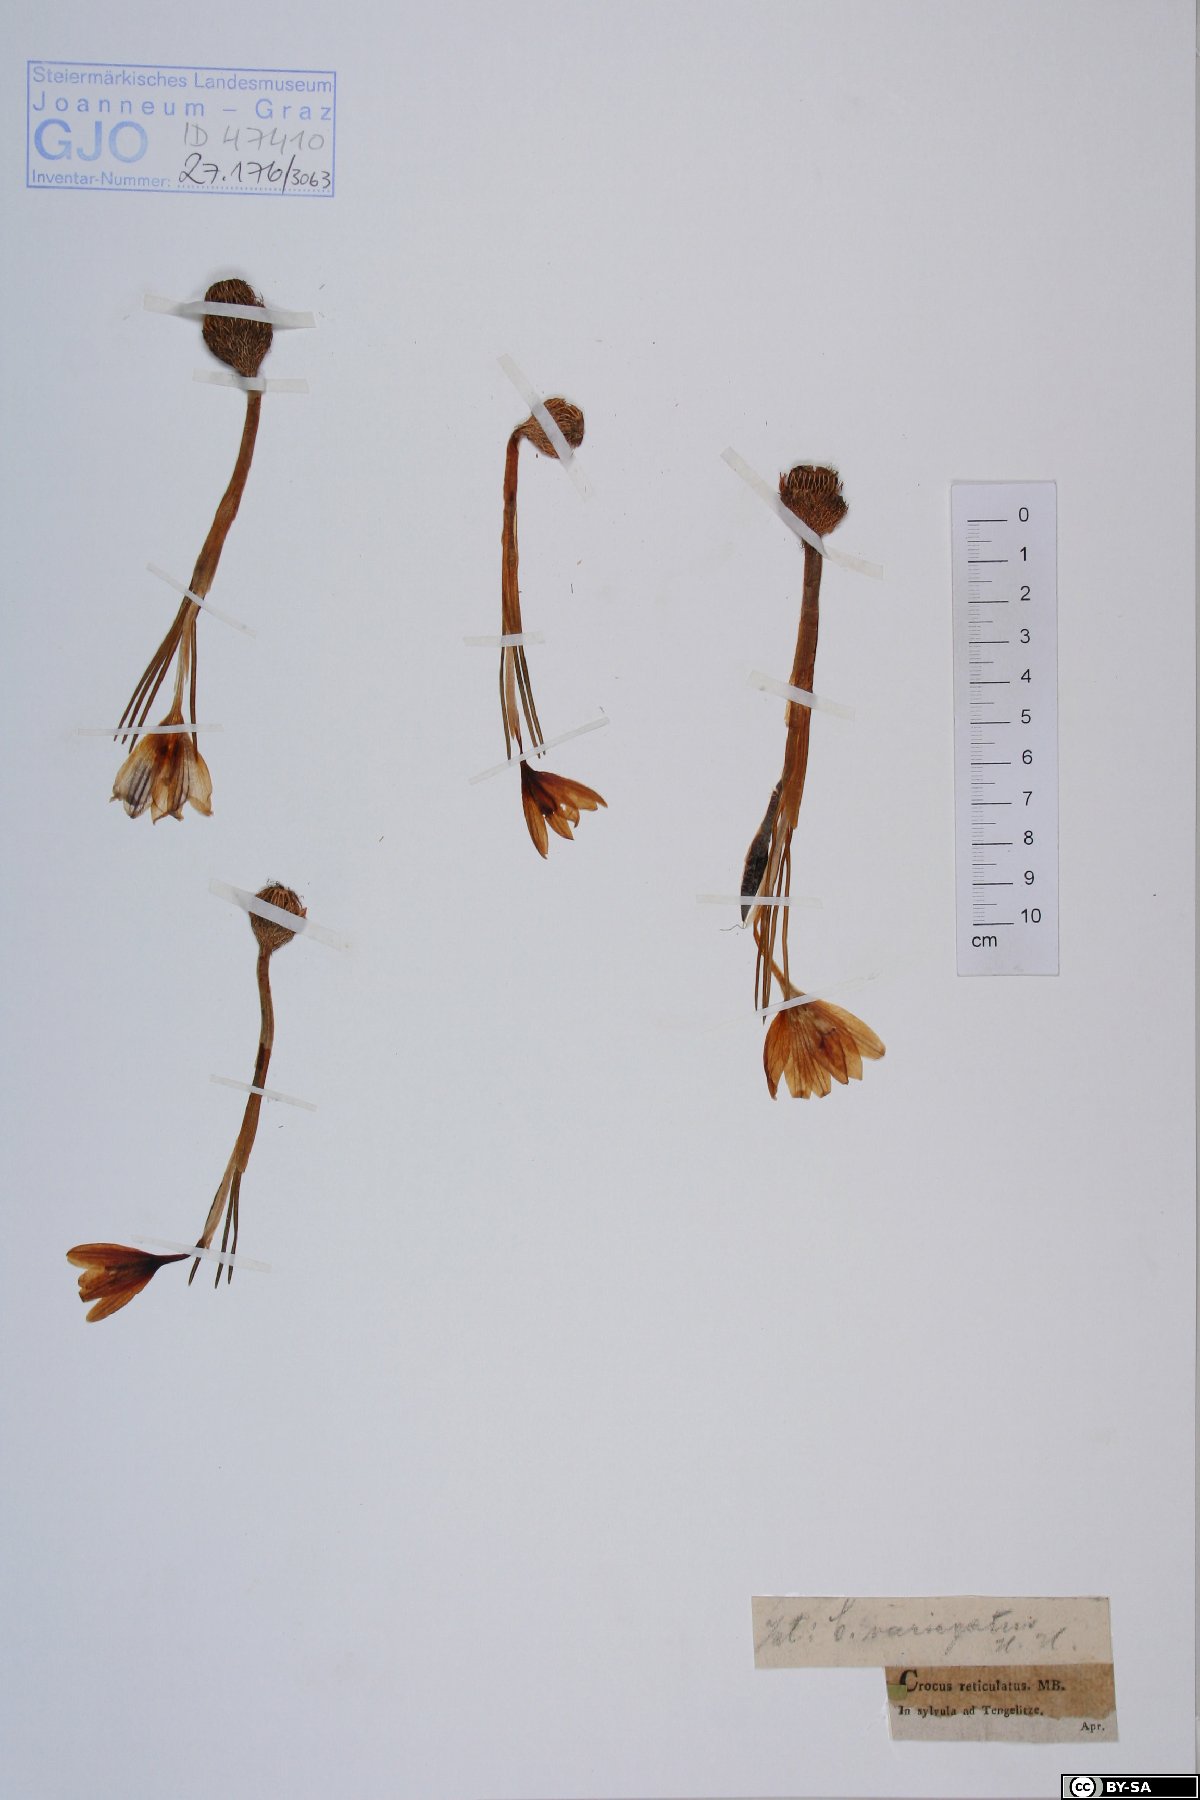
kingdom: Plantae
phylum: Tracheophyta
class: Liliopsida
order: Asparagales
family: Iridaceae
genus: Crocus
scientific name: Crocus reticulatus
